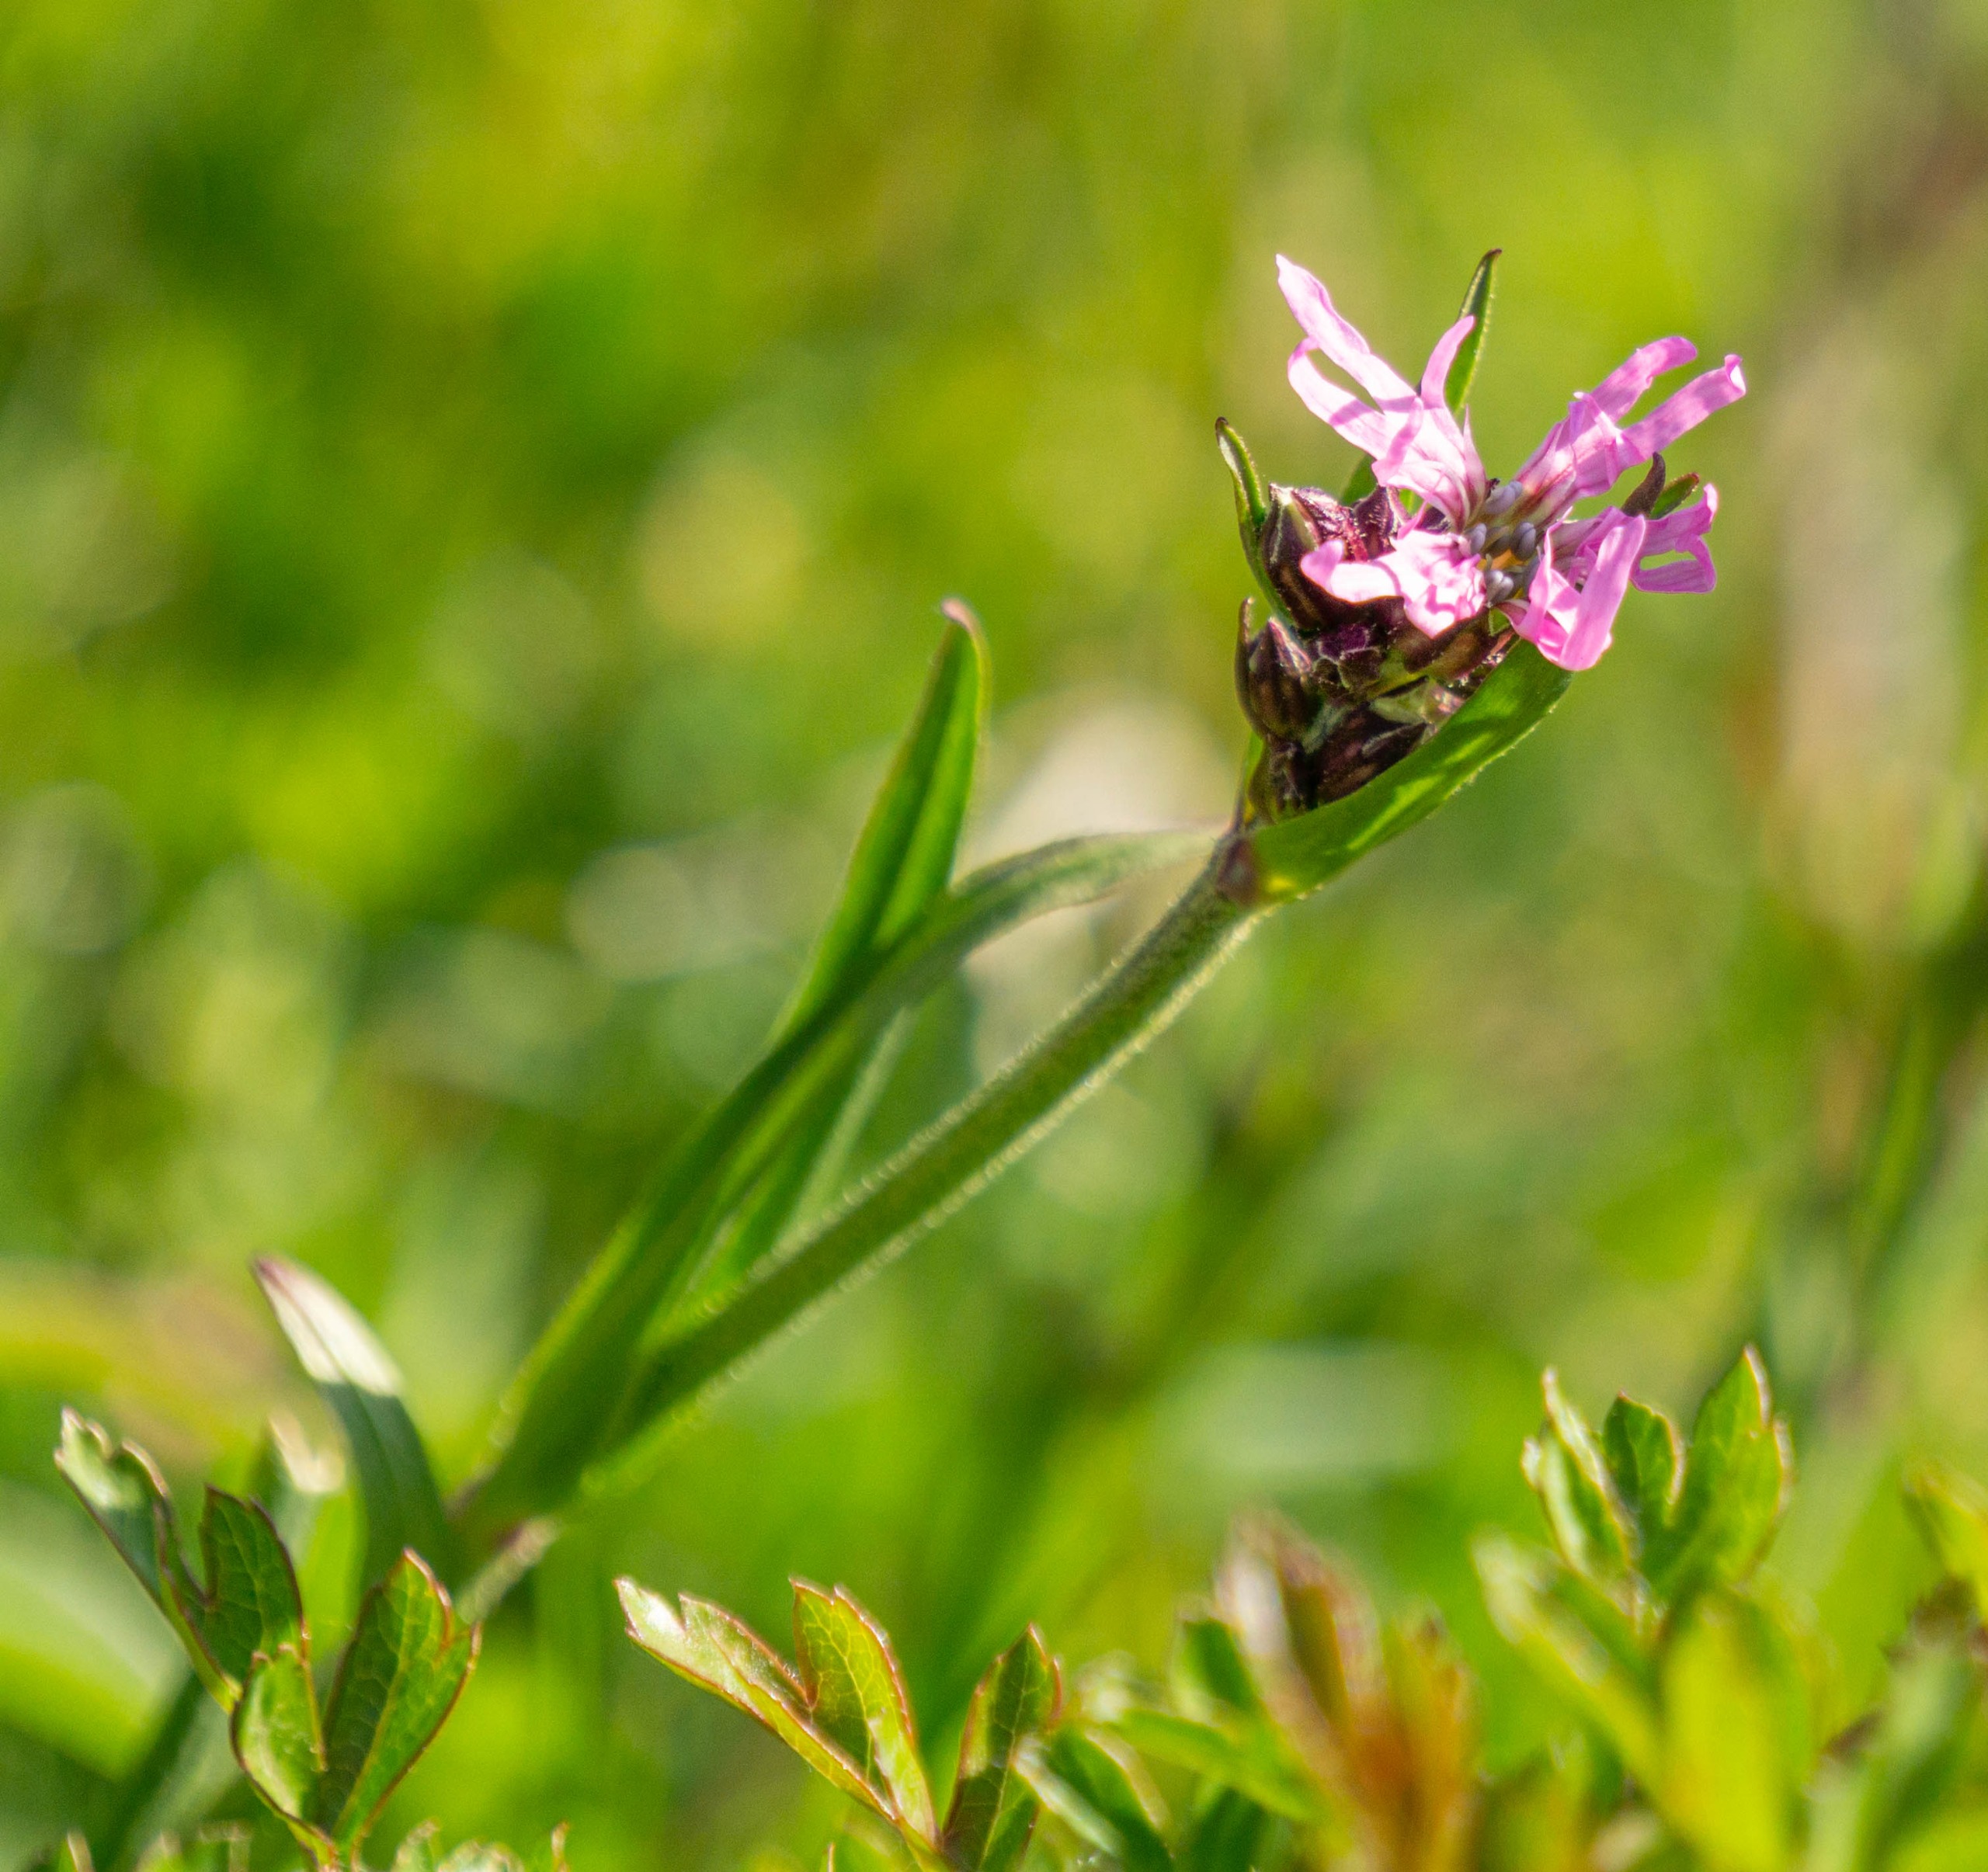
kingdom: Plantae
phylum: Tracheophyta
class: Magnoliopsida
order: Caryophyllales
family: Caryophyllaceae
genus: Silene
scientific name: Silene flos-cuculi
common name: Trævlekrone
